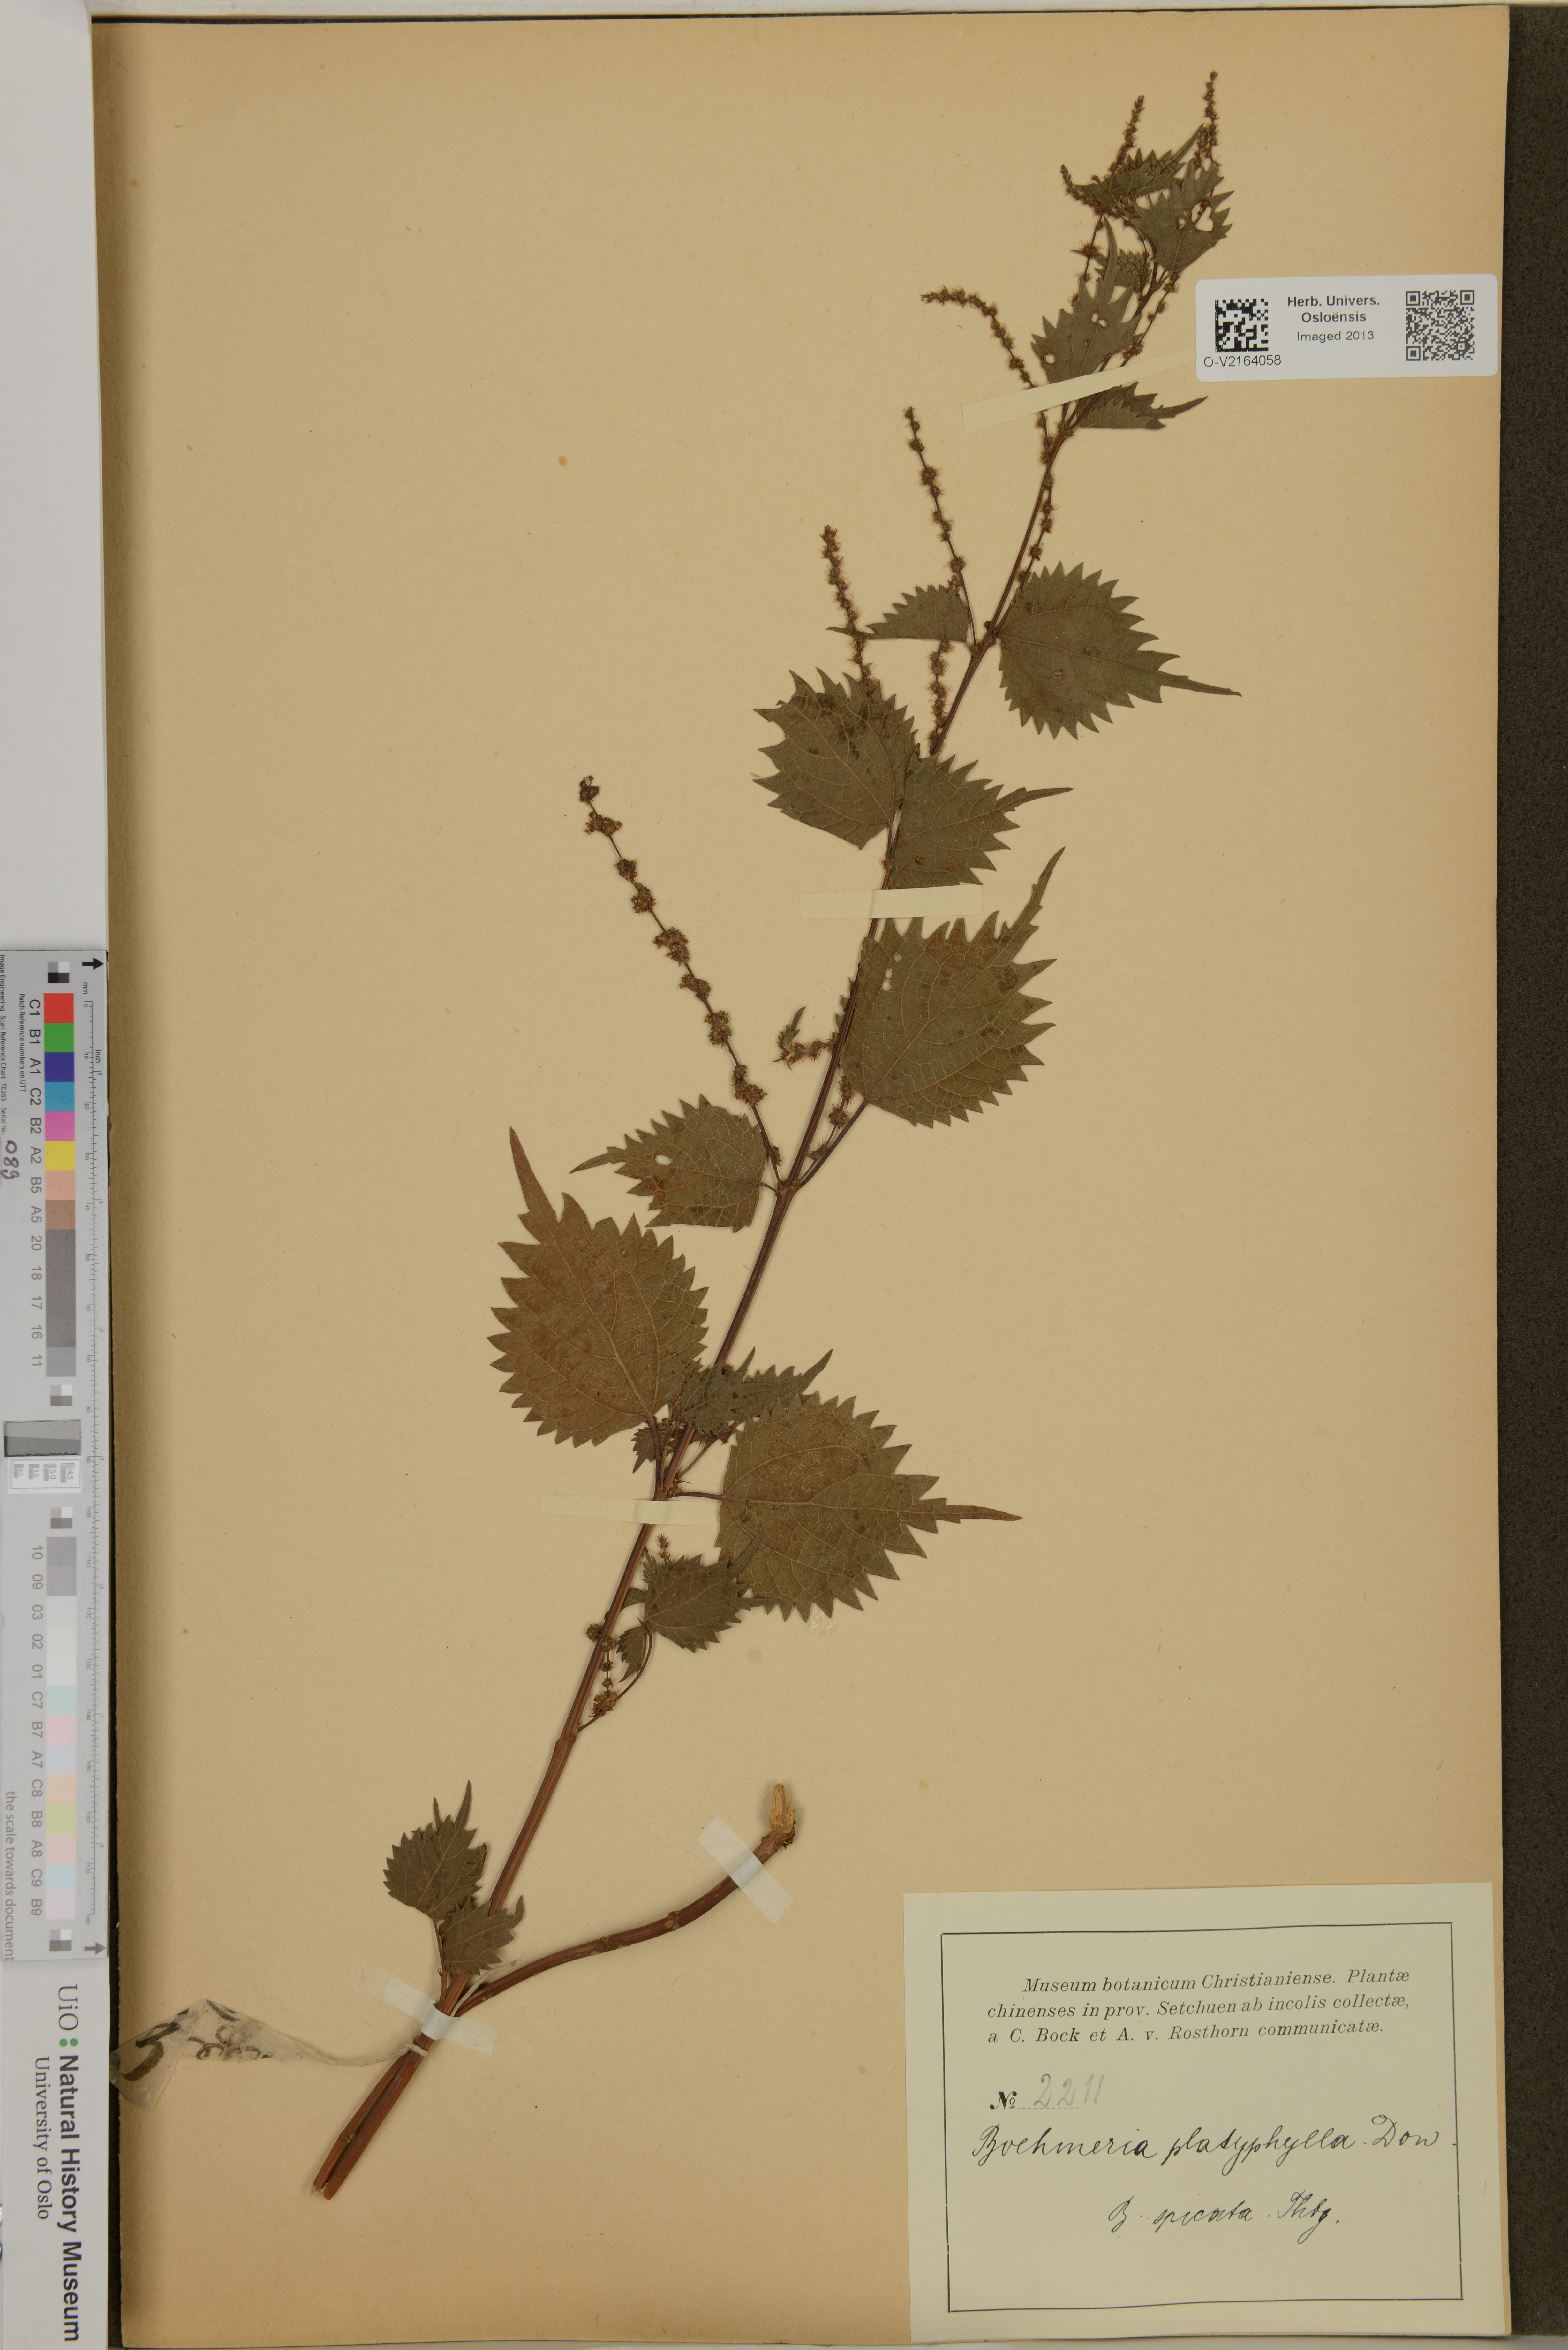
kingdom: Plantae
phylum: Tracheophyta
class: Magnoliopsida
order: Rosales
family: Urticaceae
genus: Boehmeria
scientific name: Boehmeria virgata
